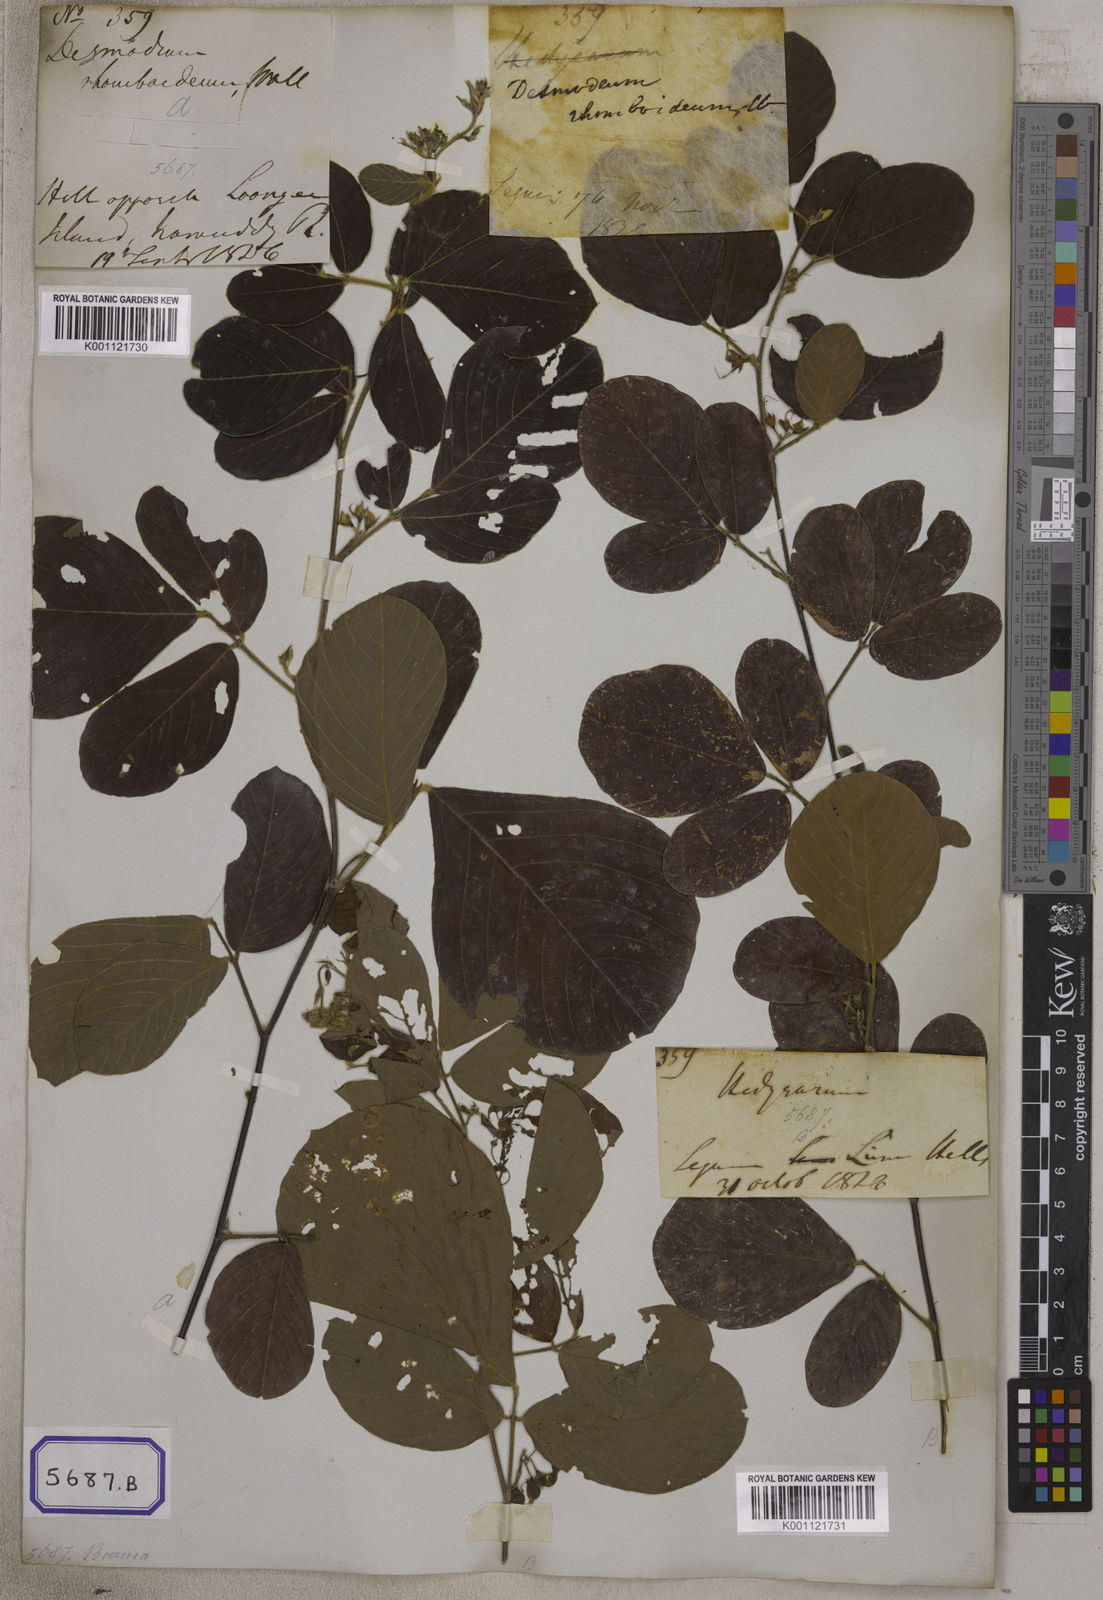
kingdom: Plantae
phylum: Tracheophyta
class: Magnoliopsida
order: Fabales
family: Fabaceae
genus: Dendrolobium
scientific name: Dendrolobium umbellatum
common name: Horsebush
